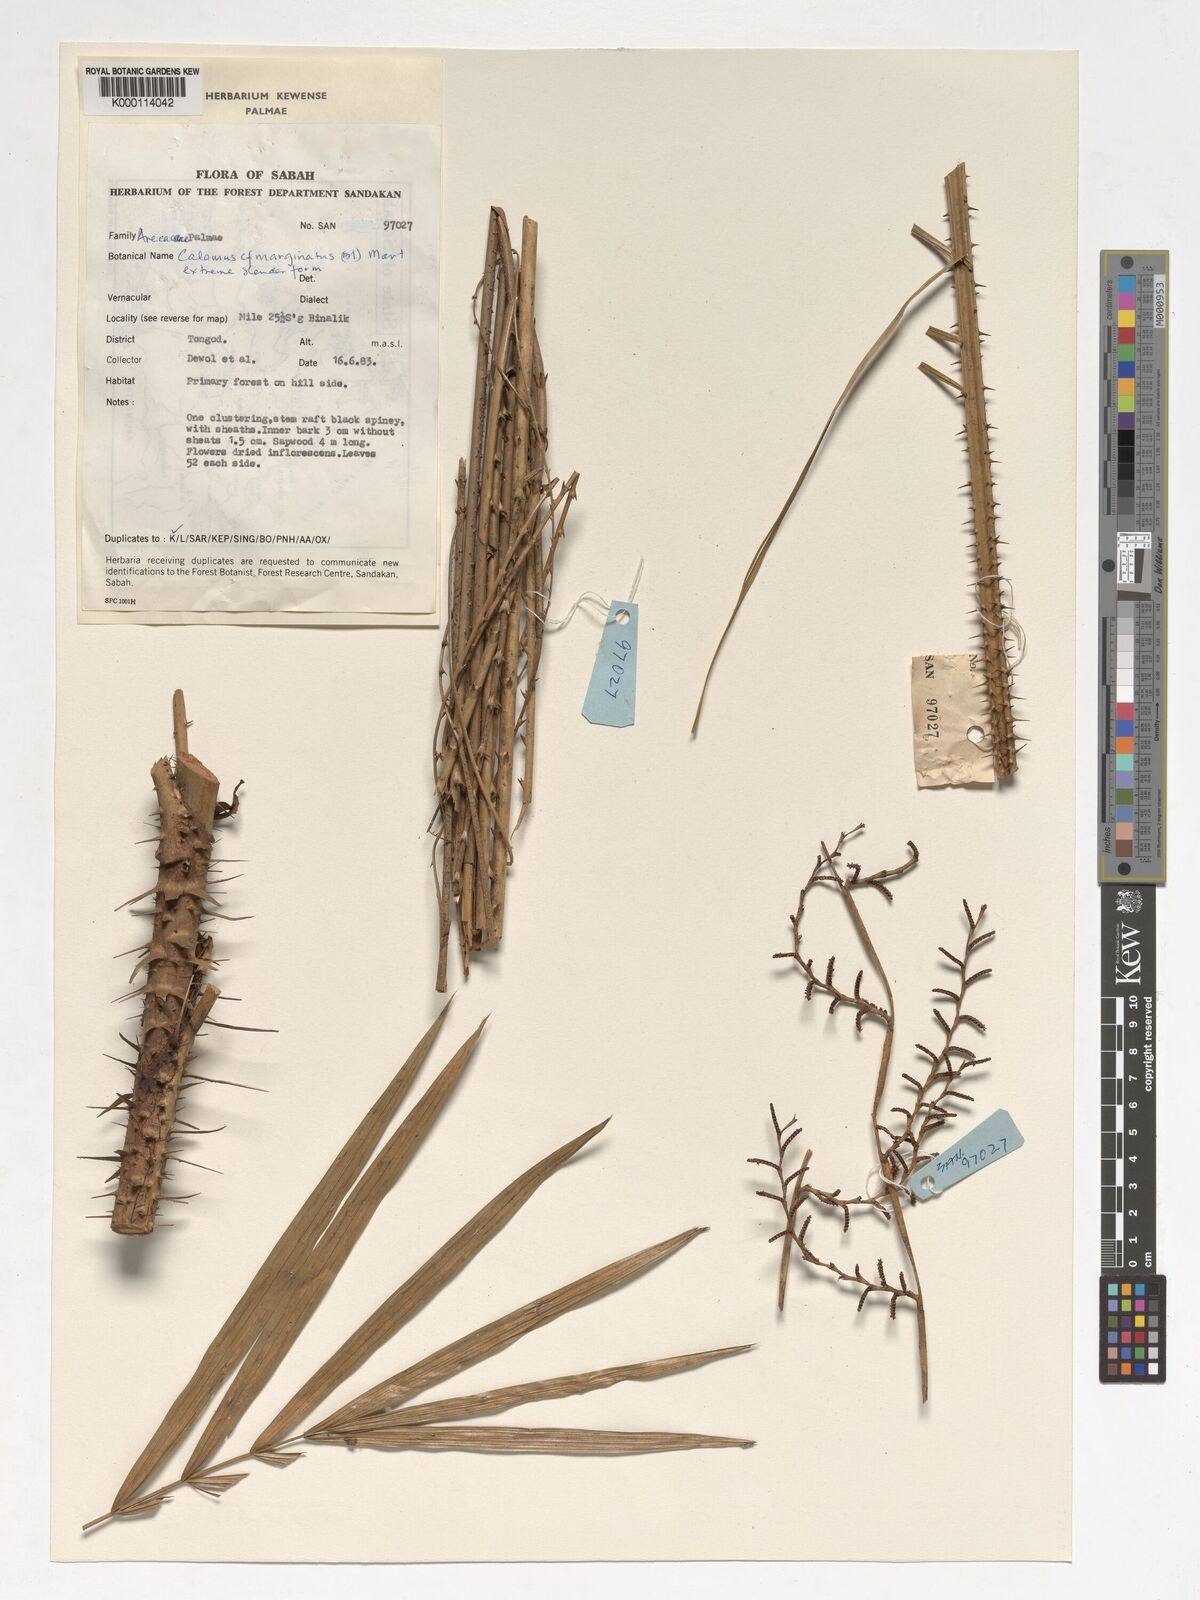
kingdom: Plantae
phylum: Tracheophyta
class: Liliopsida
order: Arecales
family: Arecaceae
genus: Calamus
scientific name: Calamus
